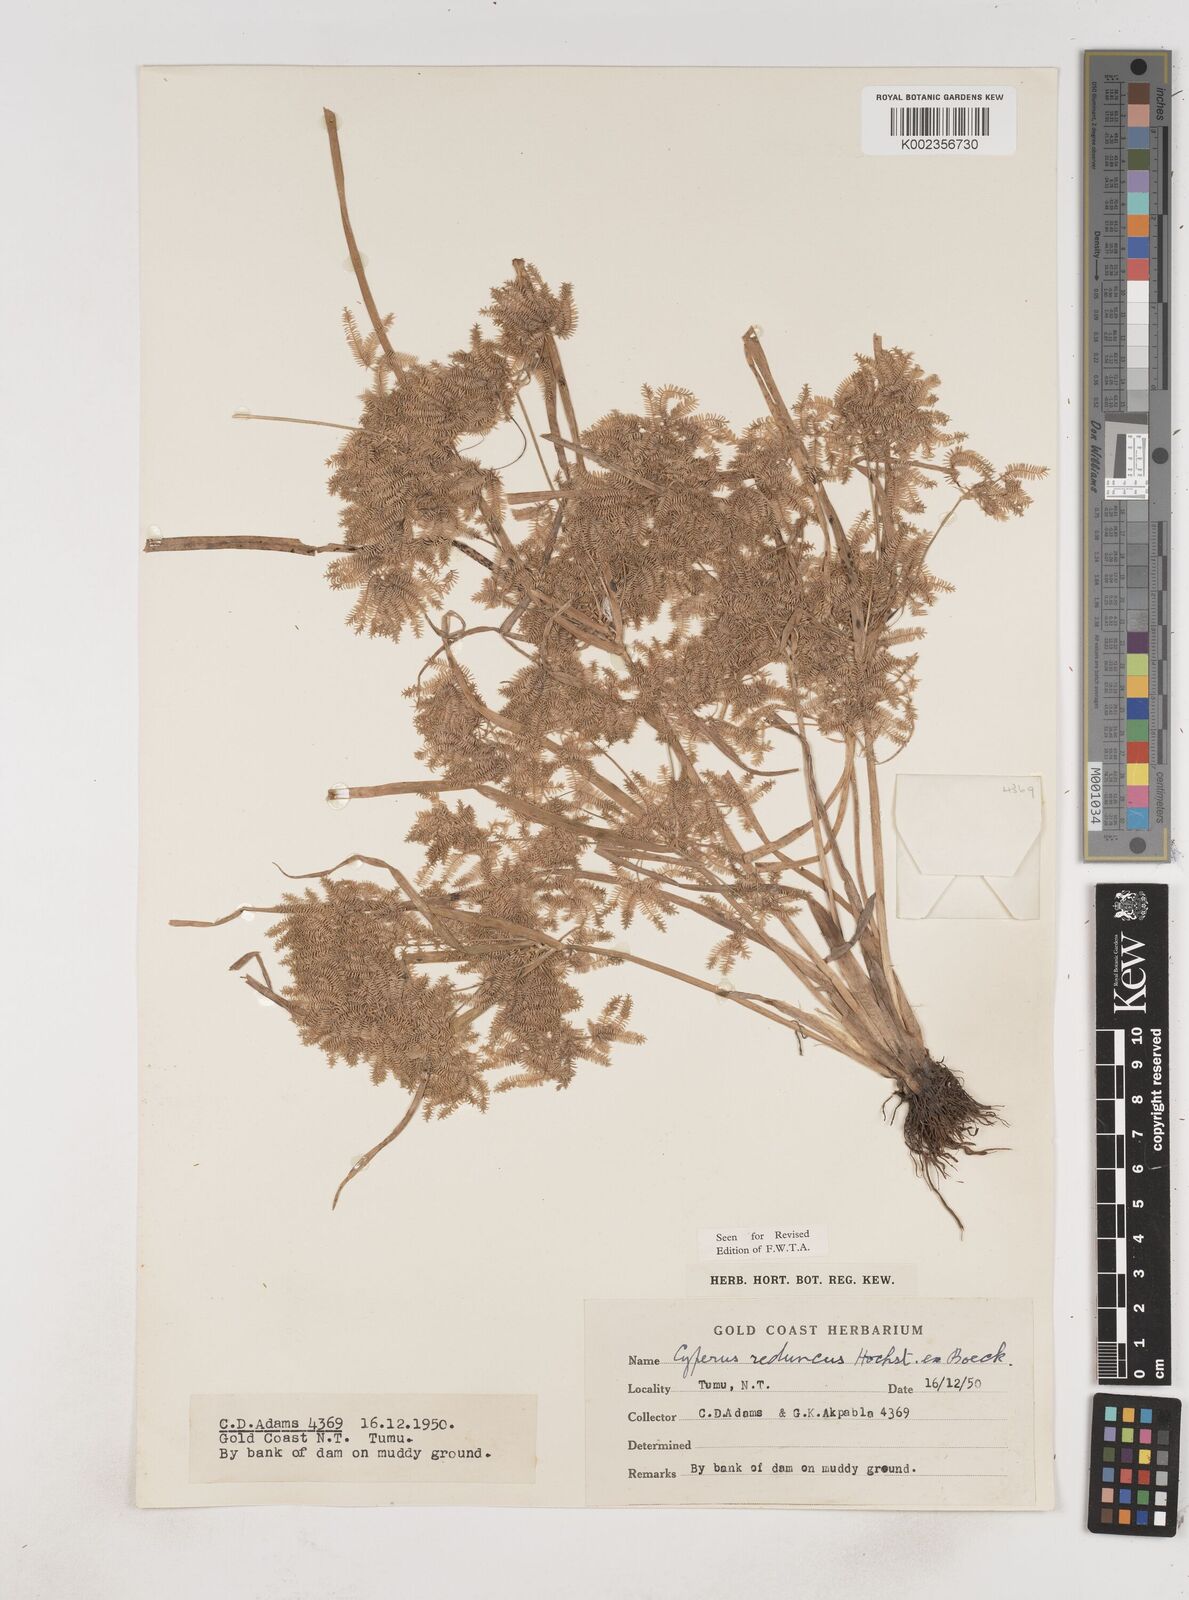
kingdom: Plantae
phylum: Tracheophyta
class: Liliopsida
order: Poales
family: Cyperaceae
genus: Cyperus
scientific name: Cyperus reduncus
